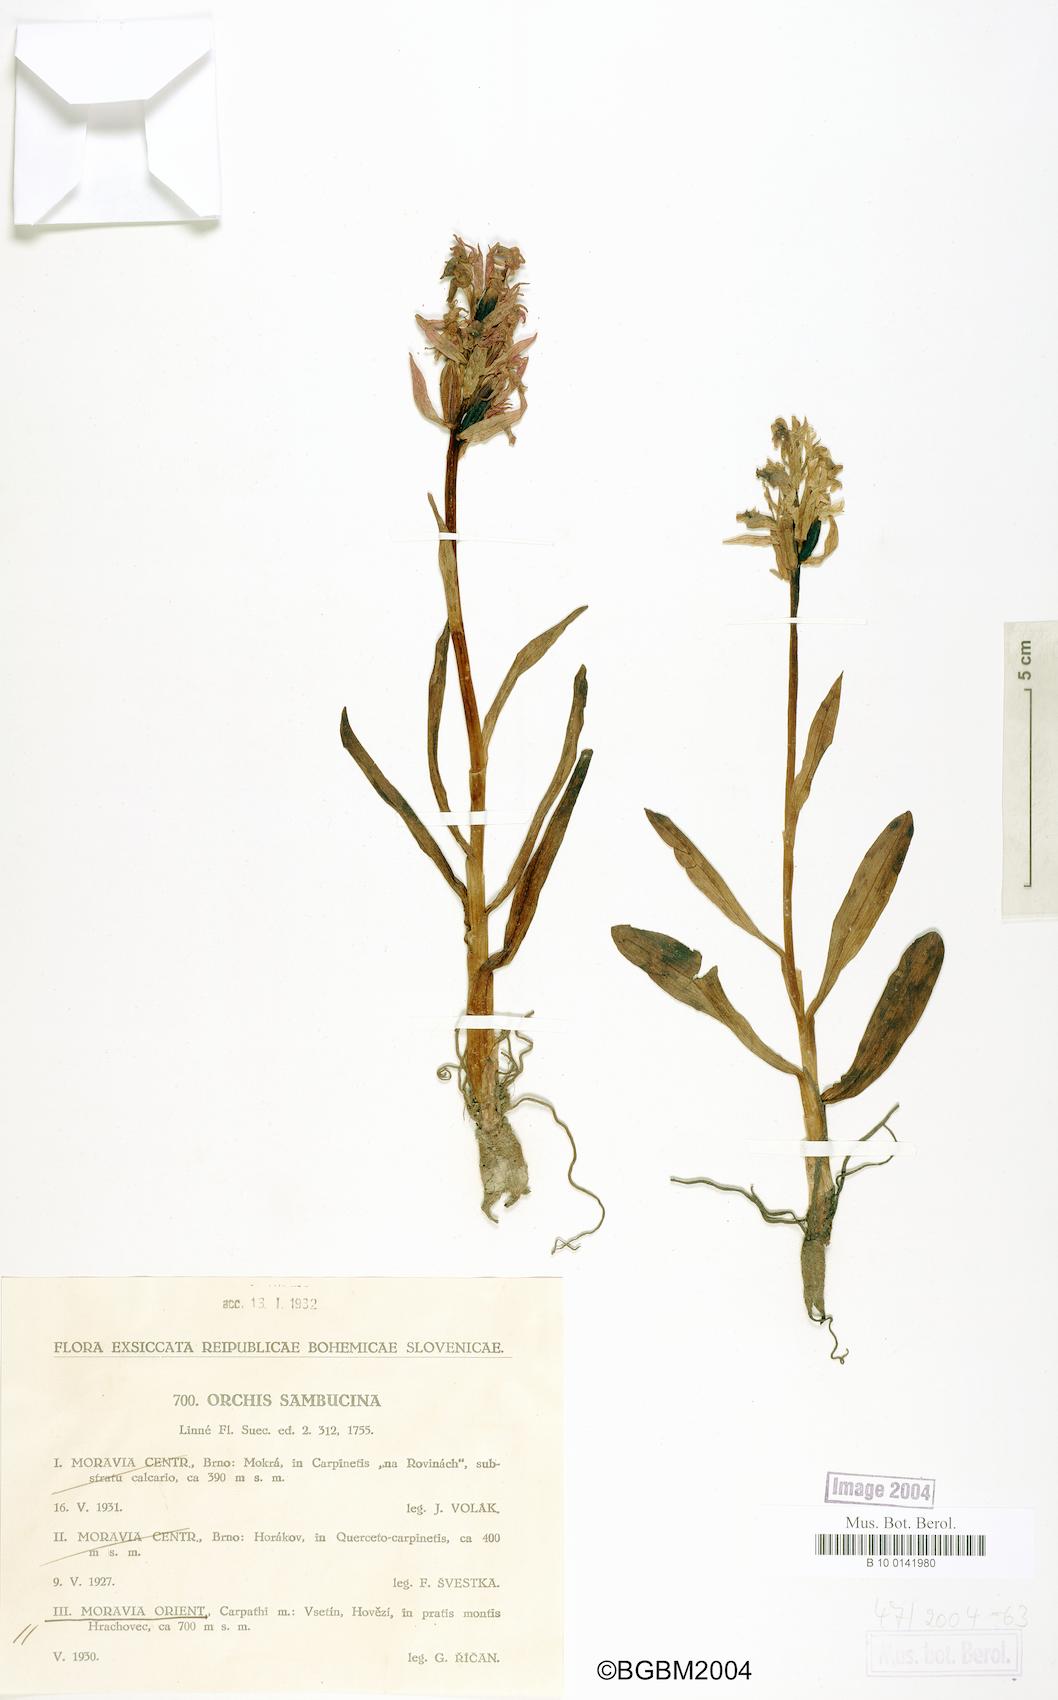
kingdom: Plantae
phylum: Tracheophyta
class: Liliopsida
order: Asparagales
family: Orchidaceae
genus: Dactylorhiza
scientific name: Dactylorhiza sambucina
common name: Elder-flowered orchid
